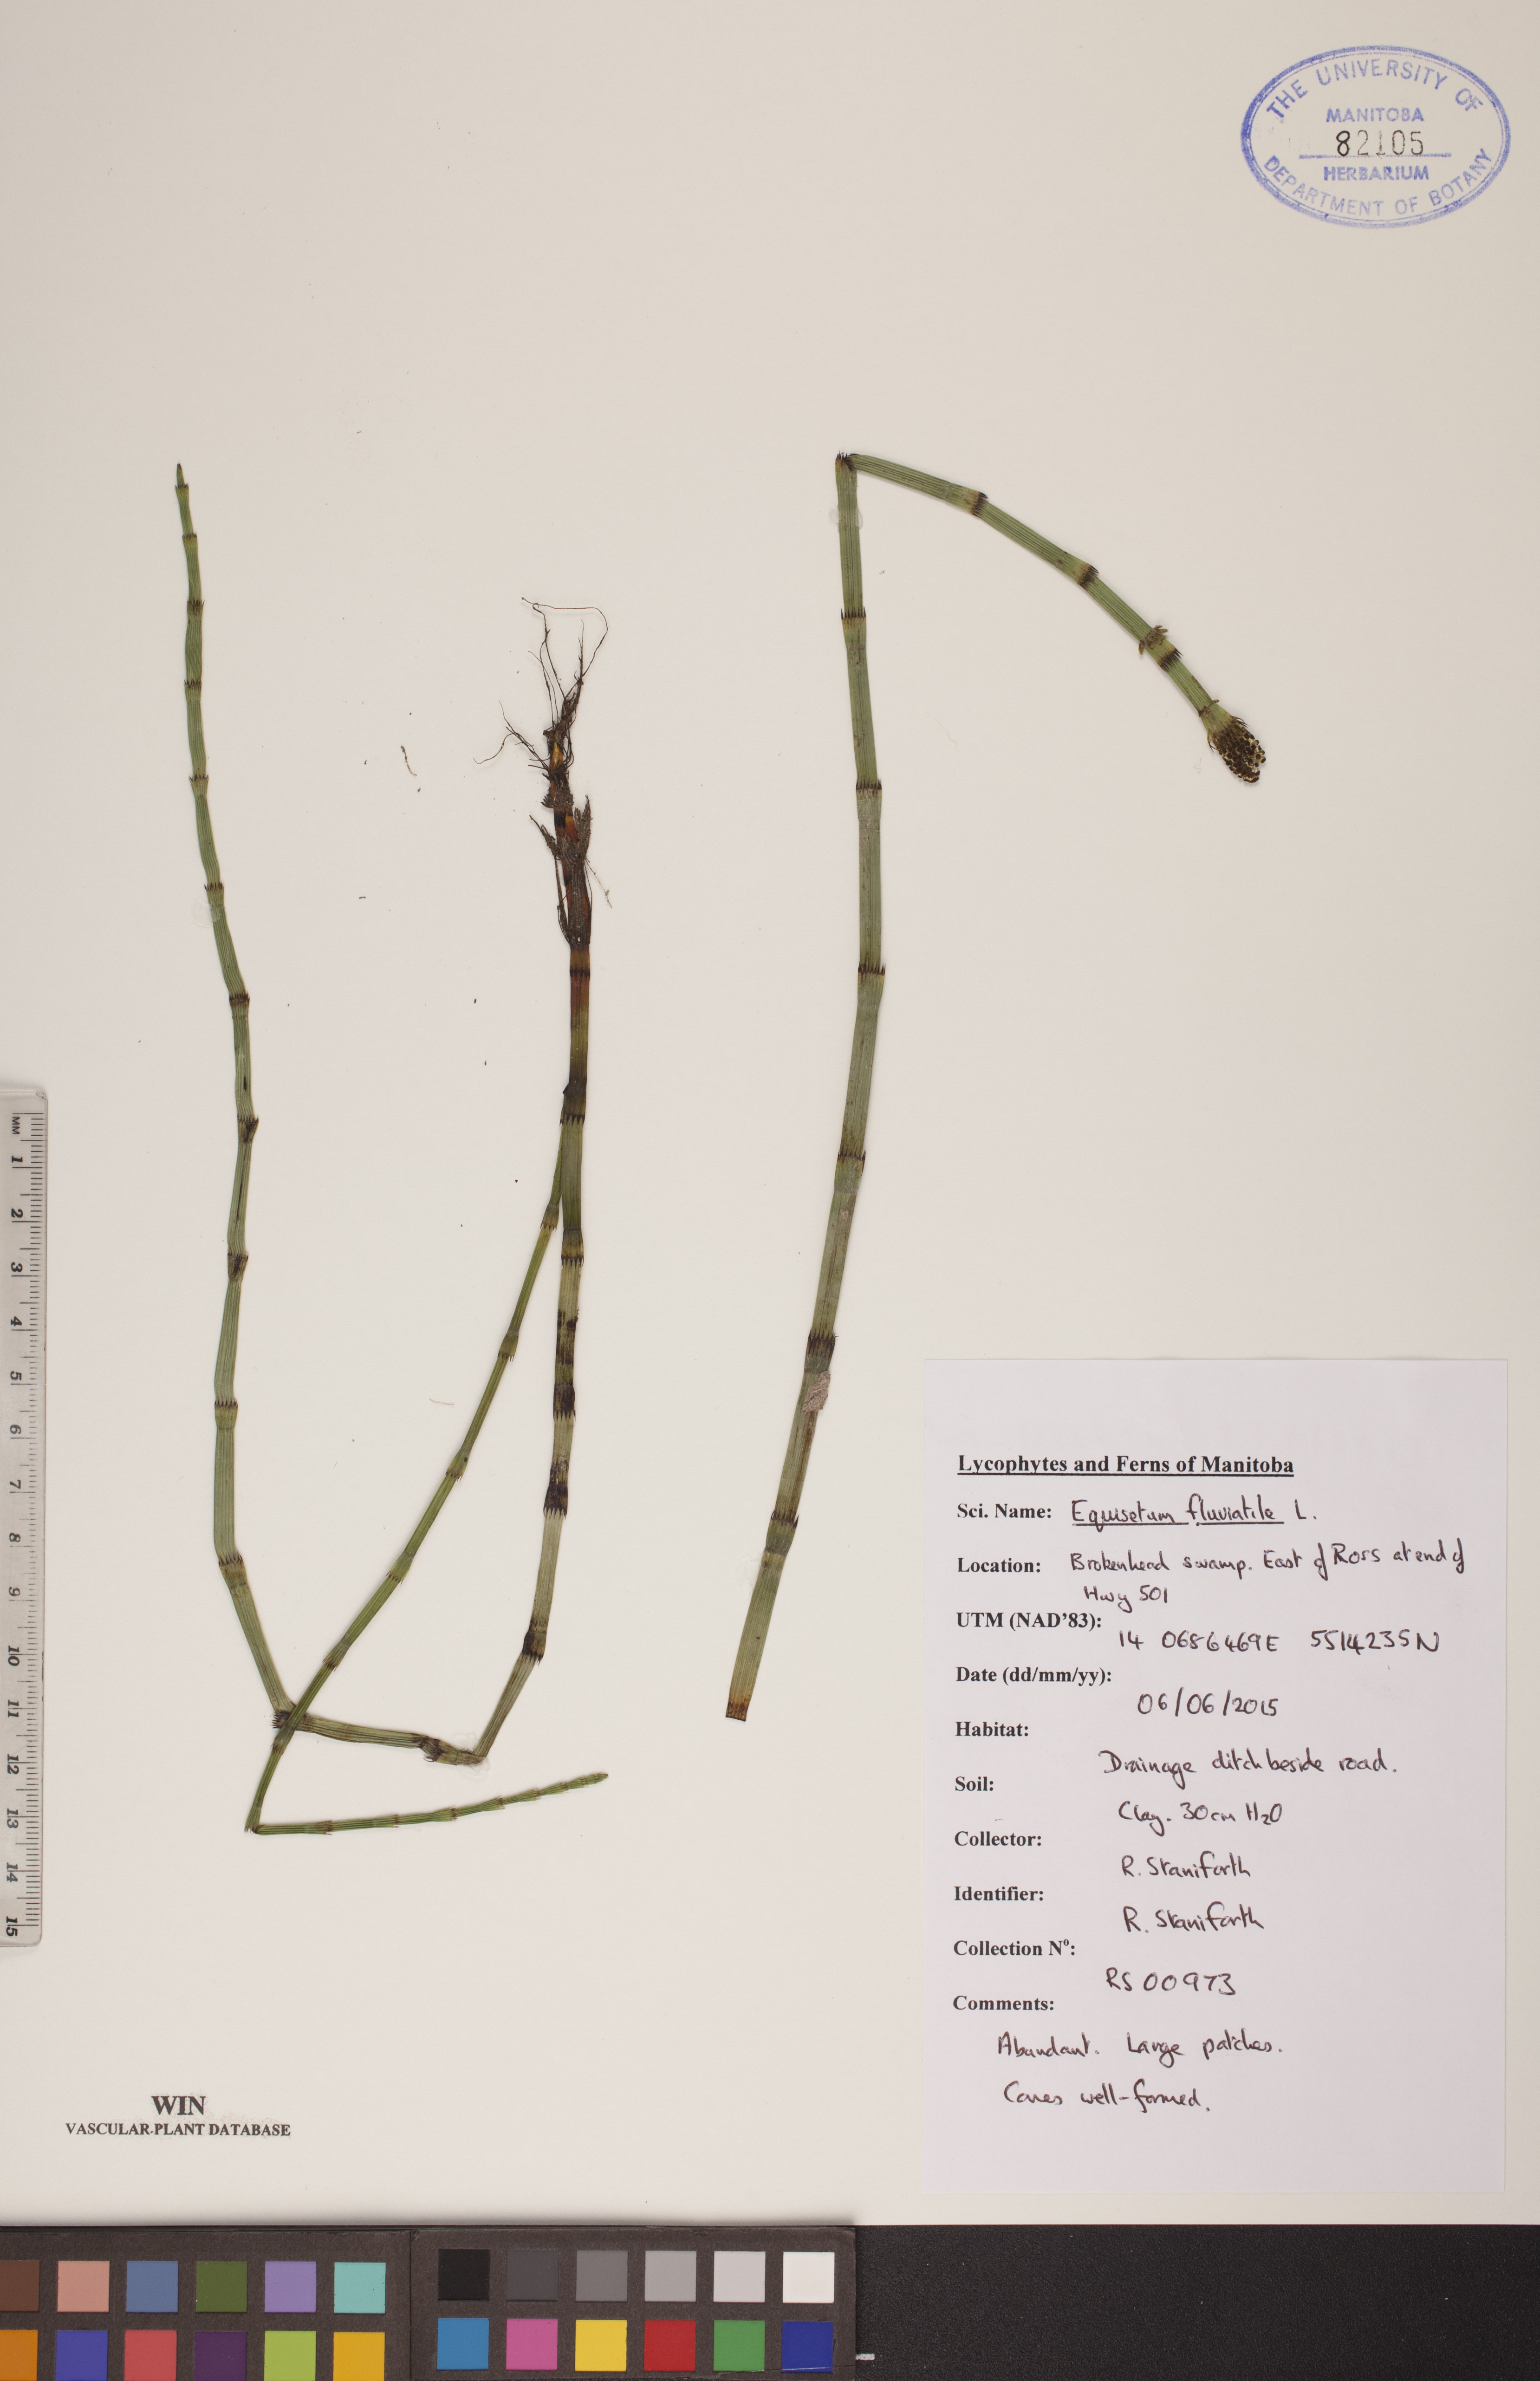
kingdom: Plantae
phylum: Tracheophyta
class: Polypodiopsida
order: Equisetales
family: Equisetaceae
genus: Equisetum
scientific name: Equisetum fluviatile
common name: Water horsetail
